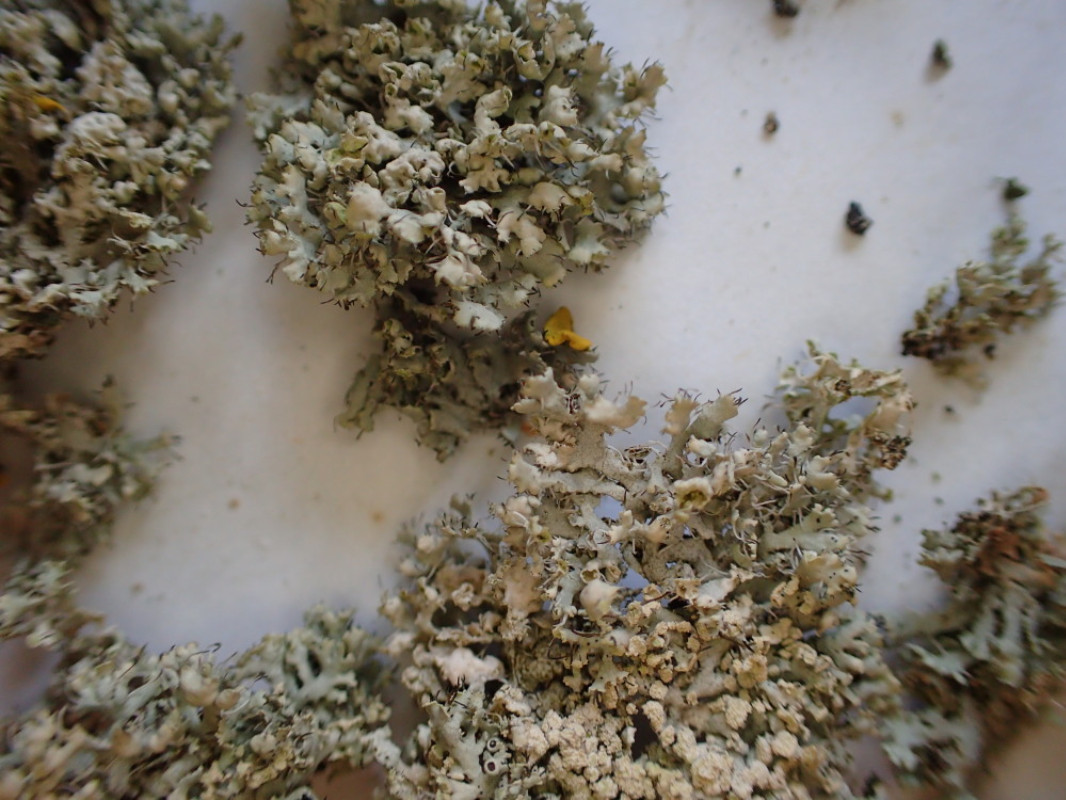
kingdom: Fungi
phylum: Ascomycota
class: Lecanoromycetes
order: Caliciales
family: Physciaceae
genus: Physcia
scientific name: Physcia adscendens
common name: hætte-rosetlav
